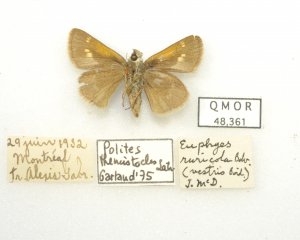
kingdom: Animalia
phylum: Arthropoda
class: Insecta
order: Lepidoptera
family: Hesperiidae
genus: Polites
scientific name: Polites themistocles
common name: Tawny-edged Skipper
